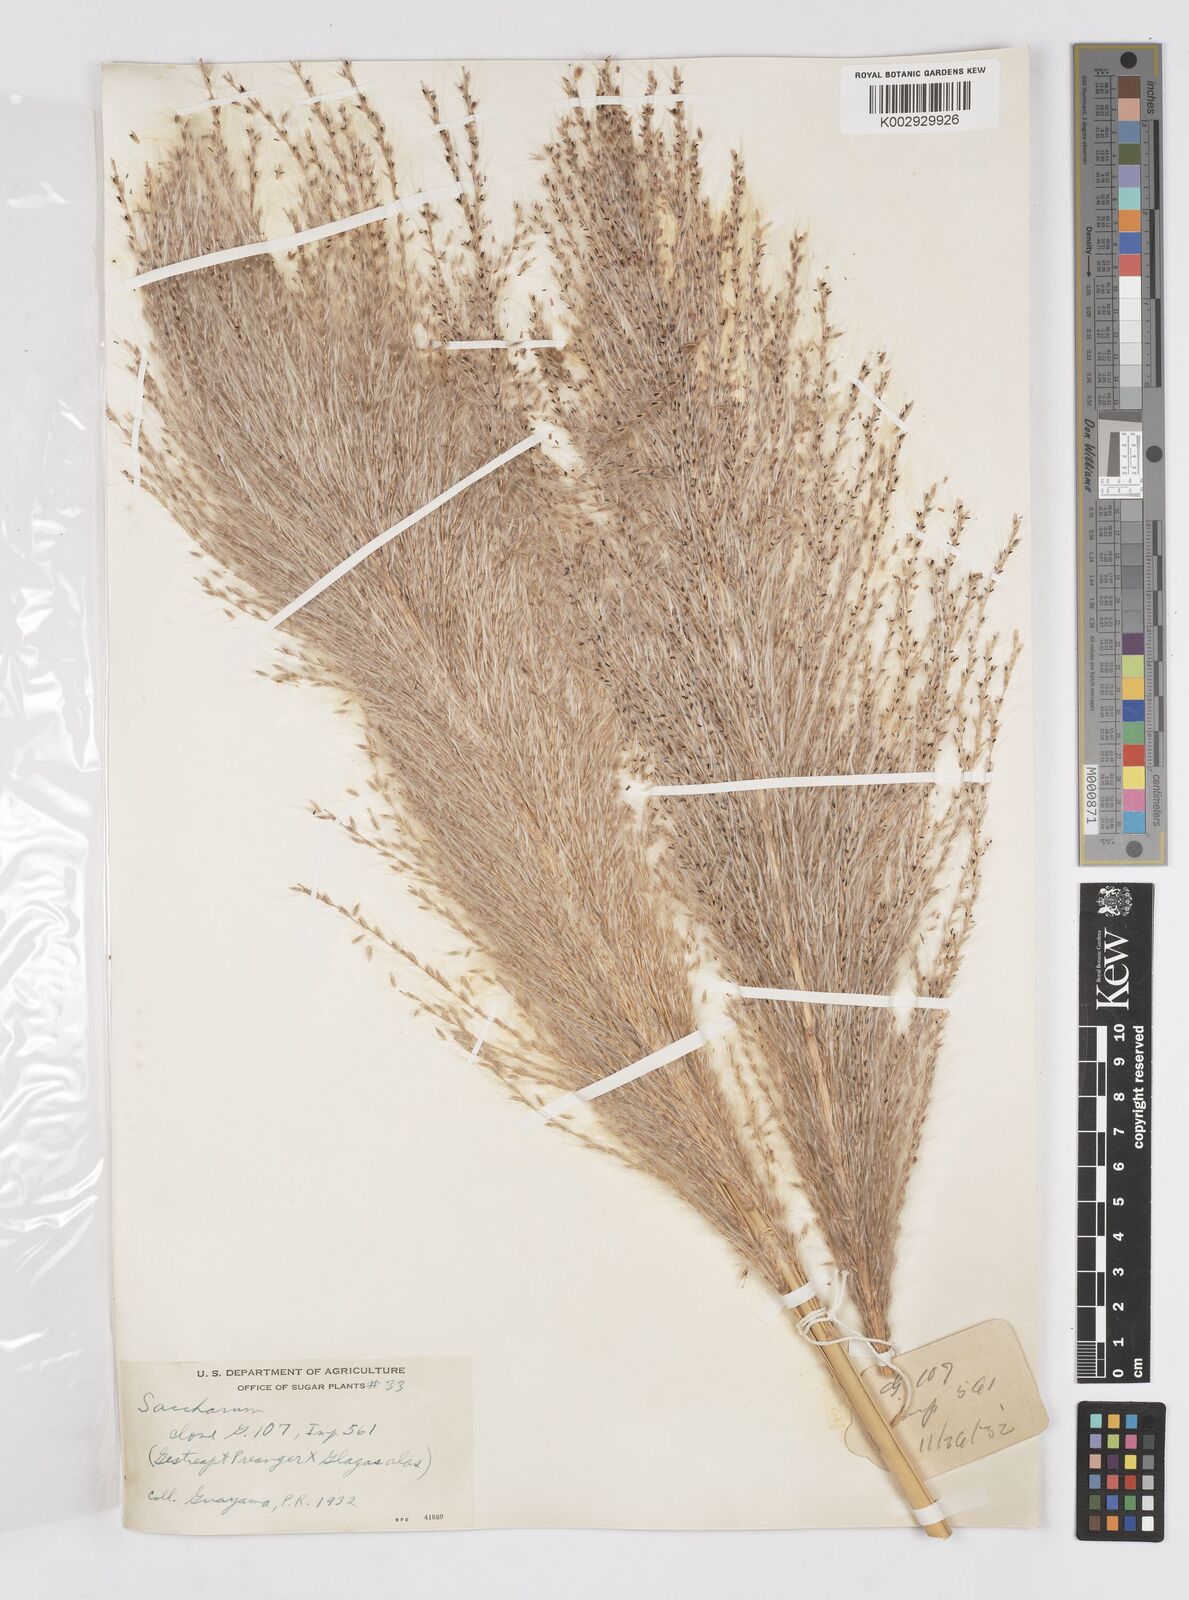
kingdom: Plantae
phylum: Tracheophyta
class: Liliopsida
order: Poales
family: Poaceae
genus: Saccharum
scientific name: Saccharum officinarum
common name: Sugarcane
